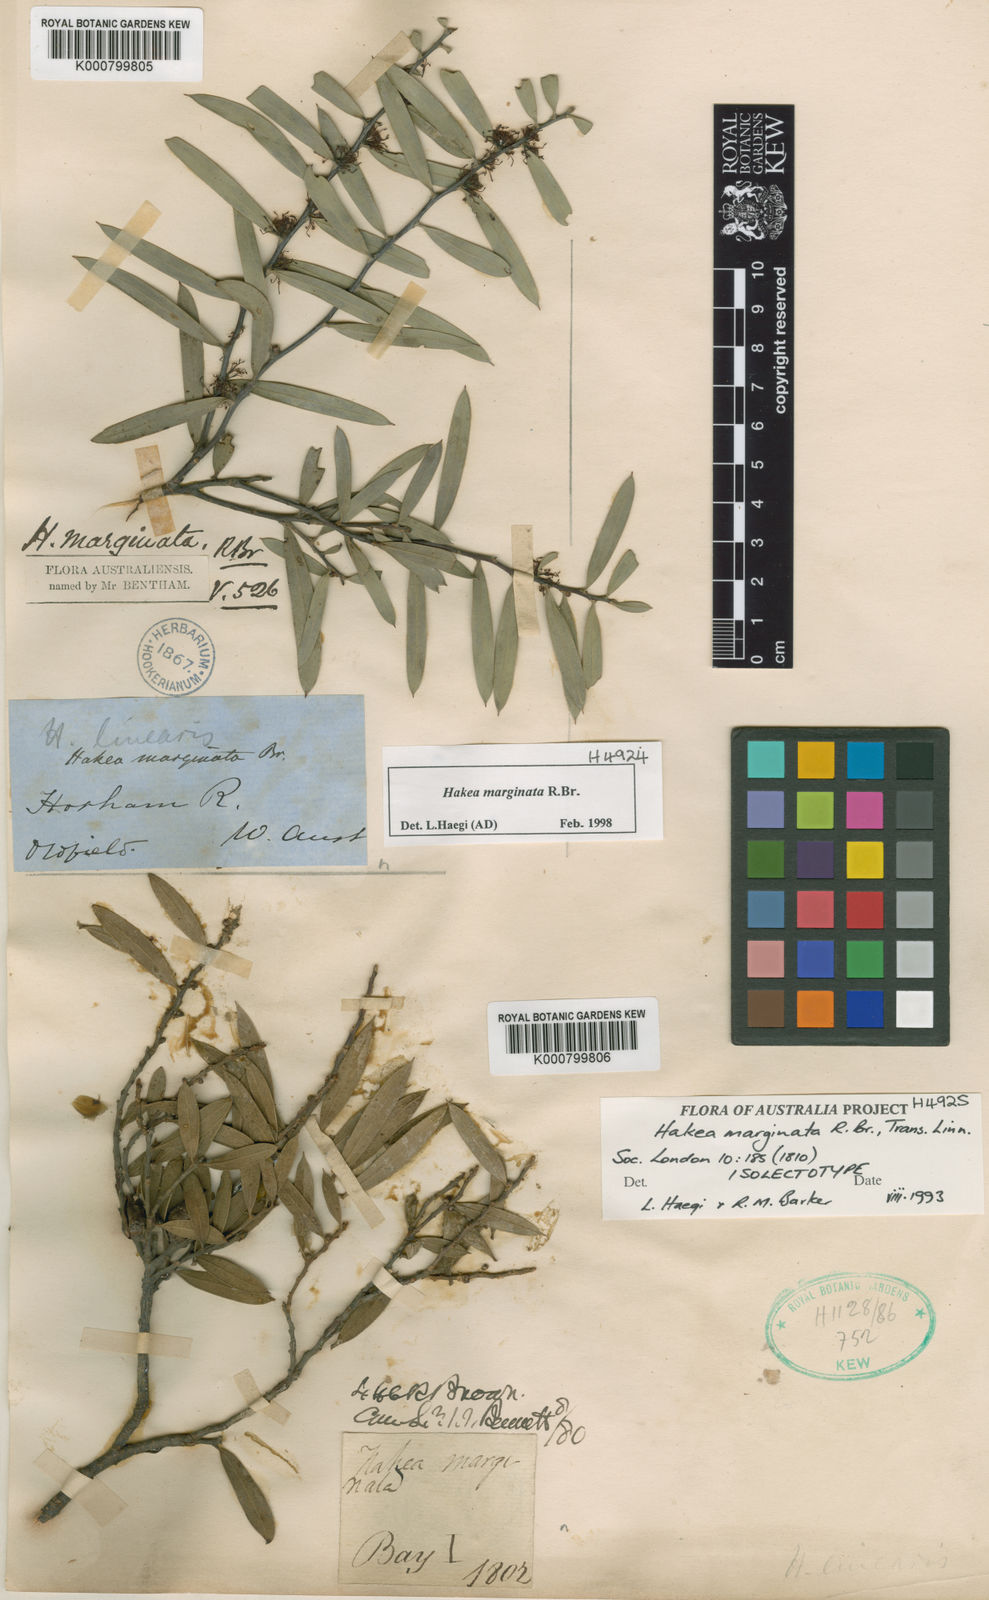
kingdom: Plantae
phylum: Tracheophyta
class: Magnoliopsida
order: Proteales
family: Proteaceae
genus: Hakea
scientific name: Hakea marginata
